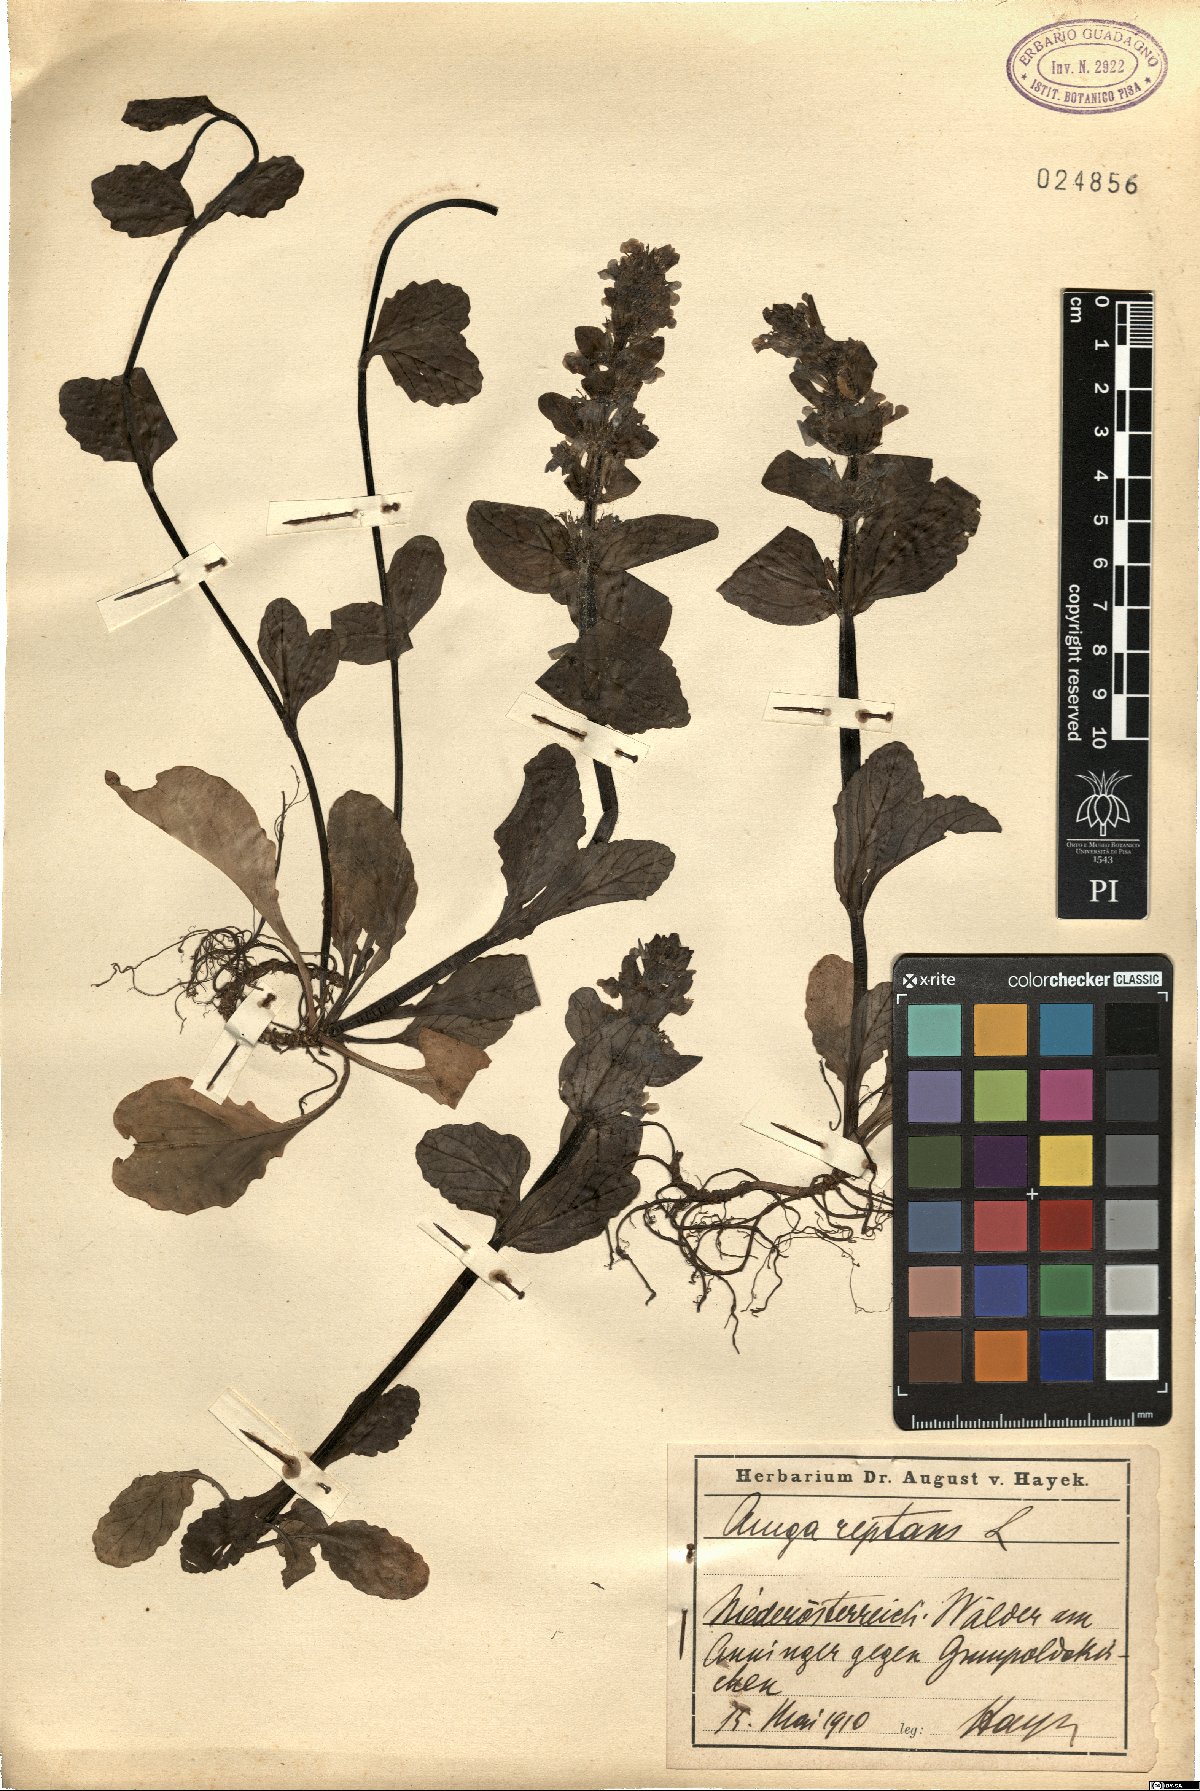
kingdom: Plantae
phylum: Tracheophyta
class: Magnoliopsida
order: Lamiales
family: Lamiaceae
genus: Ajuga
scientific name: Ajuga reptans
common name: Bugle
